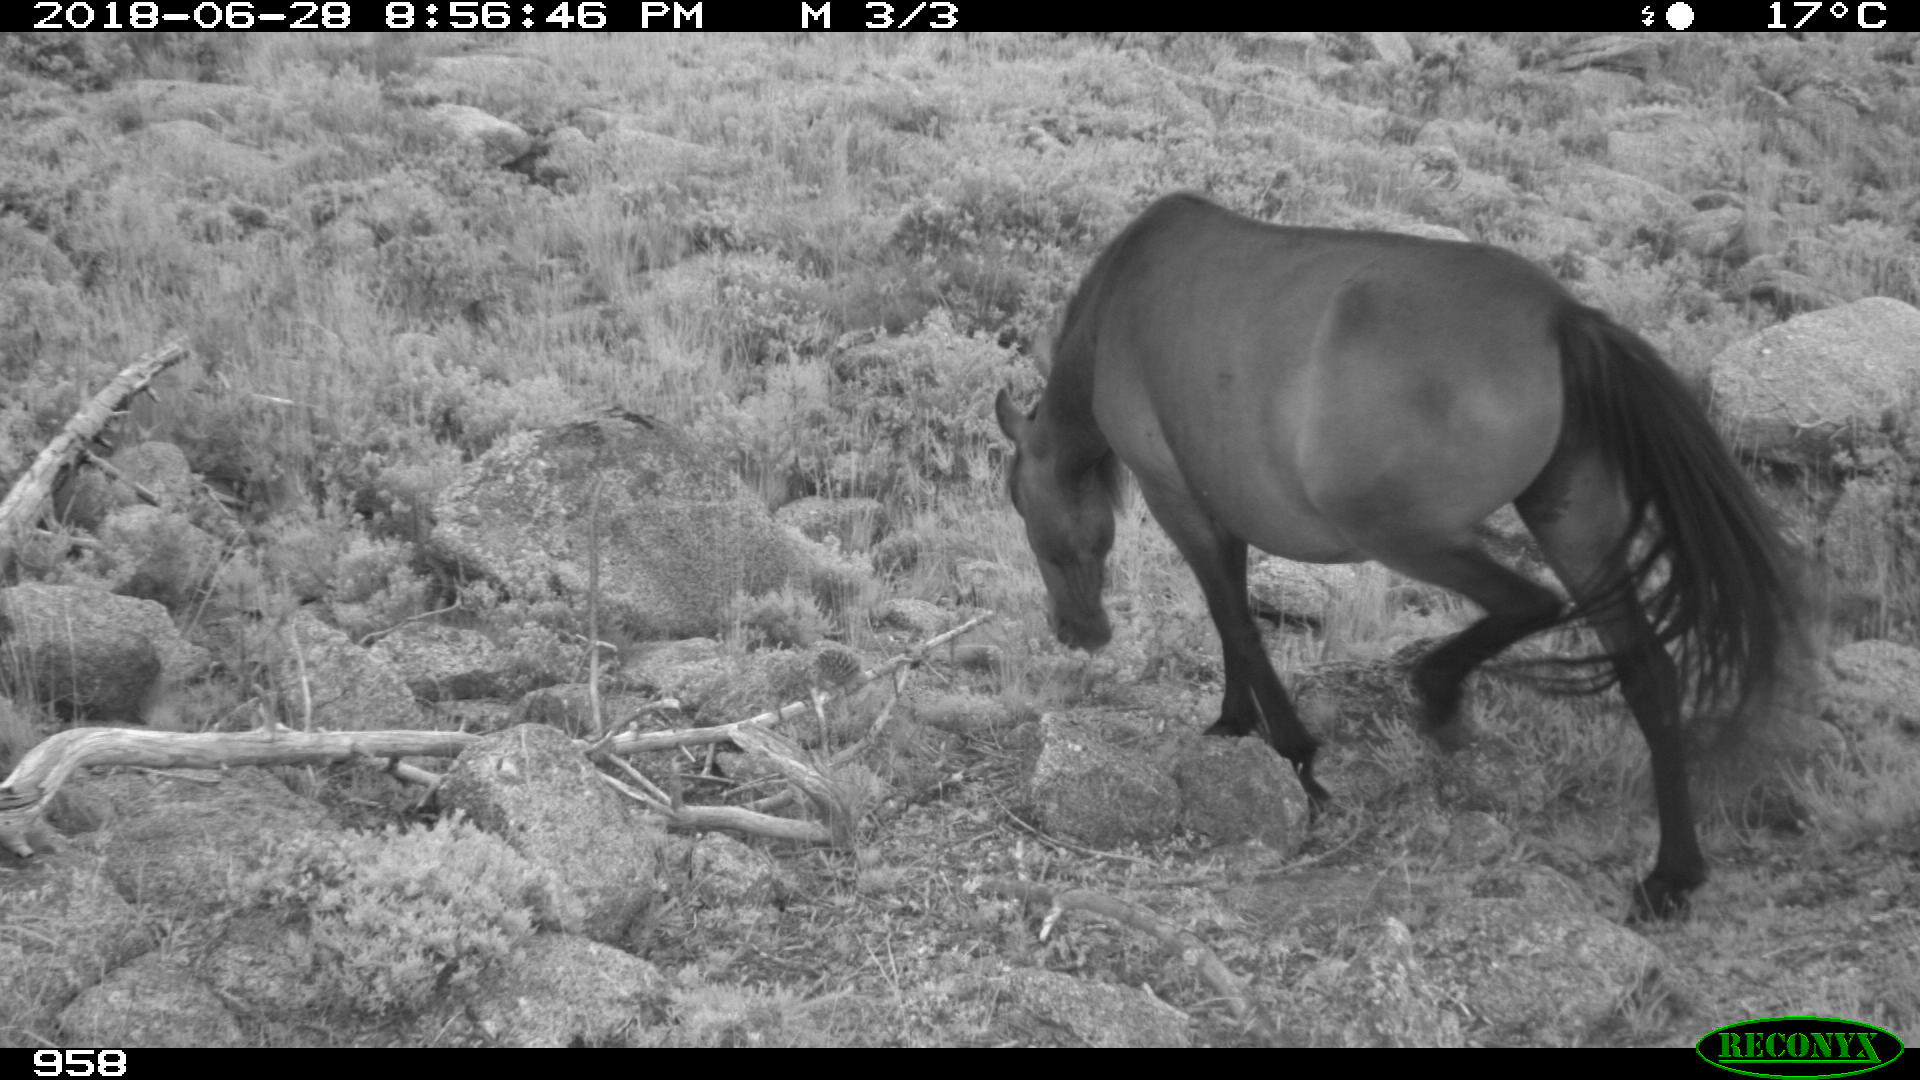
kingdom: Animalia
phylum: Chordata
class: Mammalia
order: Perissodactyla
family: Equidae
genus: Equus
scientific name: Equus caballus
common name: Horse
